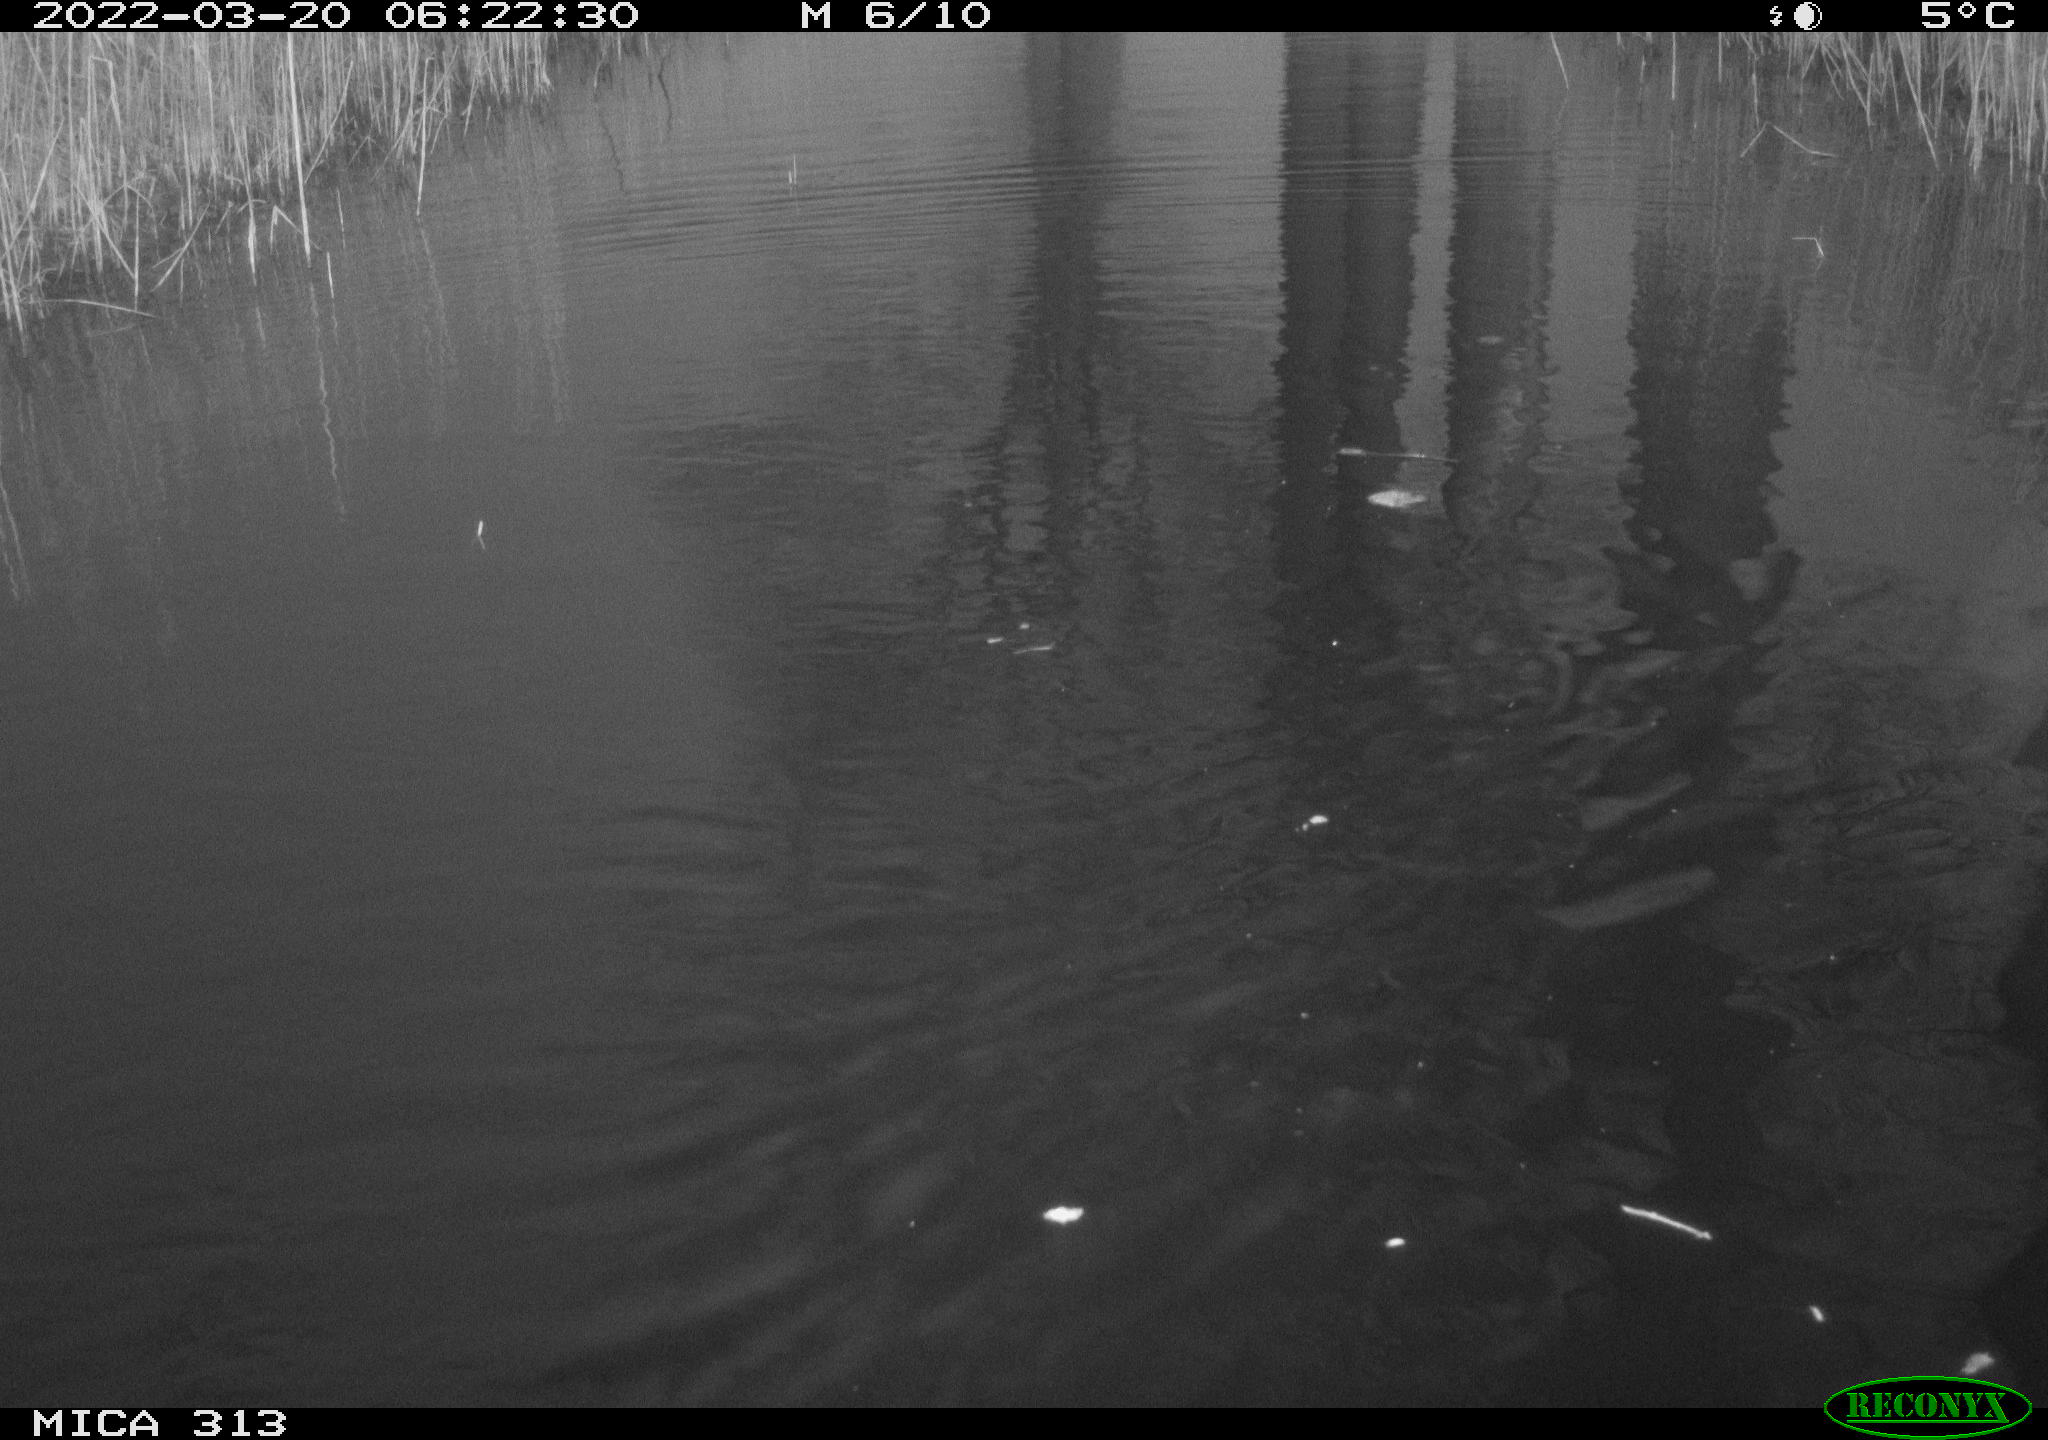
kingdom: Animalia
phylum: Chordata
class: Aves
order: Gruiformes
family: Rallidae
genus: Gallinula
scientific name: Gallinula chloropus
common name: Common moorhen
